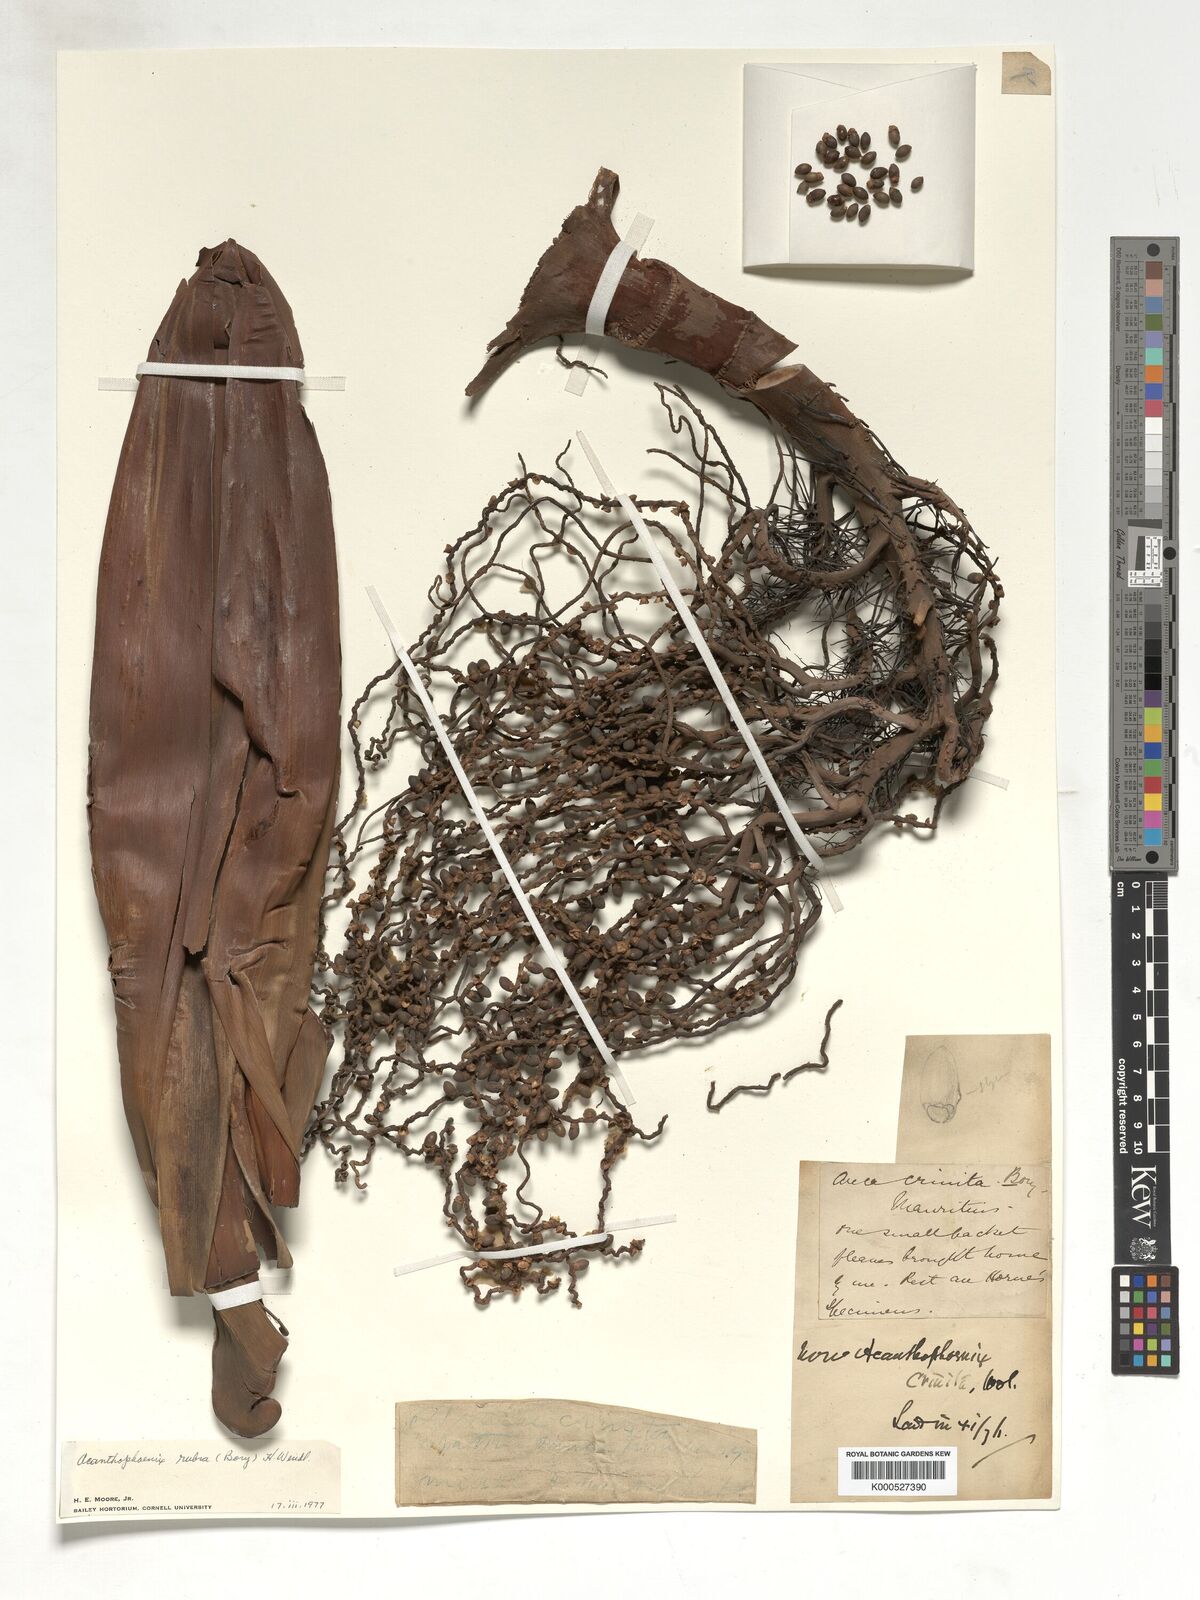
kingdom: Plantae
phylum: Tracheophyta
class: Liliopsida
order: Arecales
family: Arecaceae
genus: Acanthophoenix
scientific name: Acanthophoenix rubra
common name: Barbel palm
